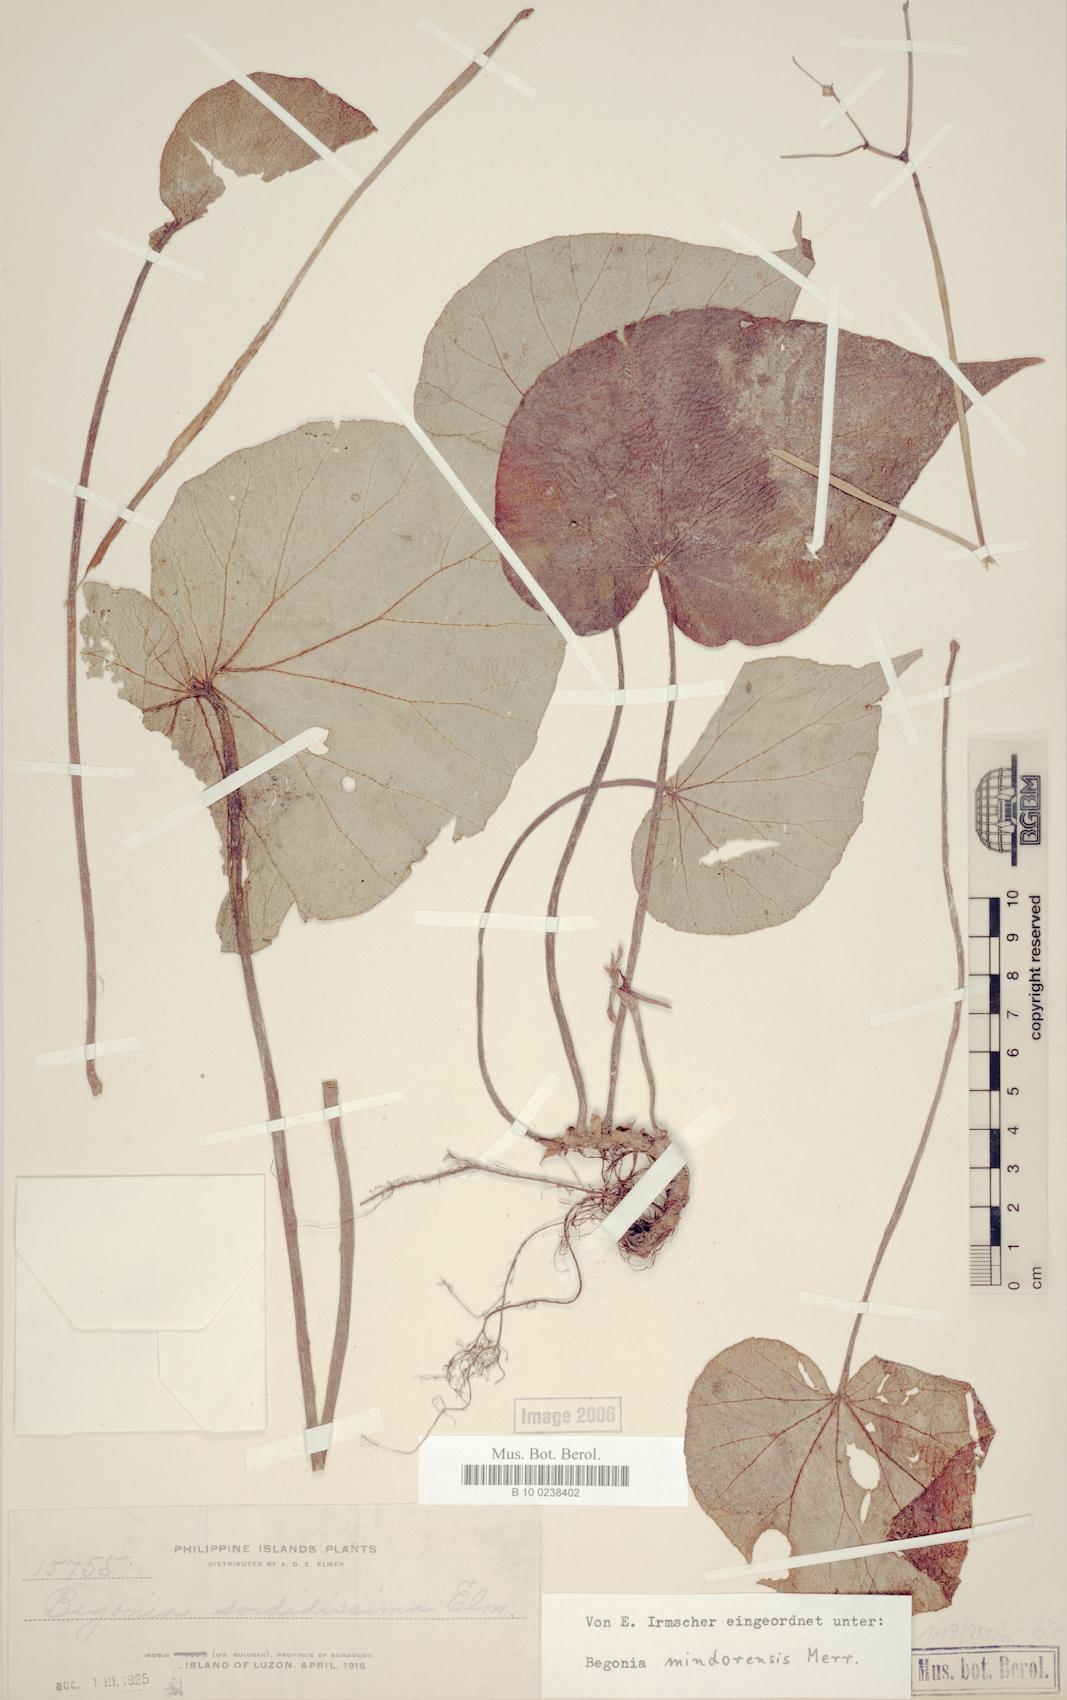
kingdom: Plantae
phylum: Tracheophyta
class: Magnoliopsida
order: Cucurbitales
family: Begoniaceae
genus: Begonia
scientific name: Begonia mindorensis
